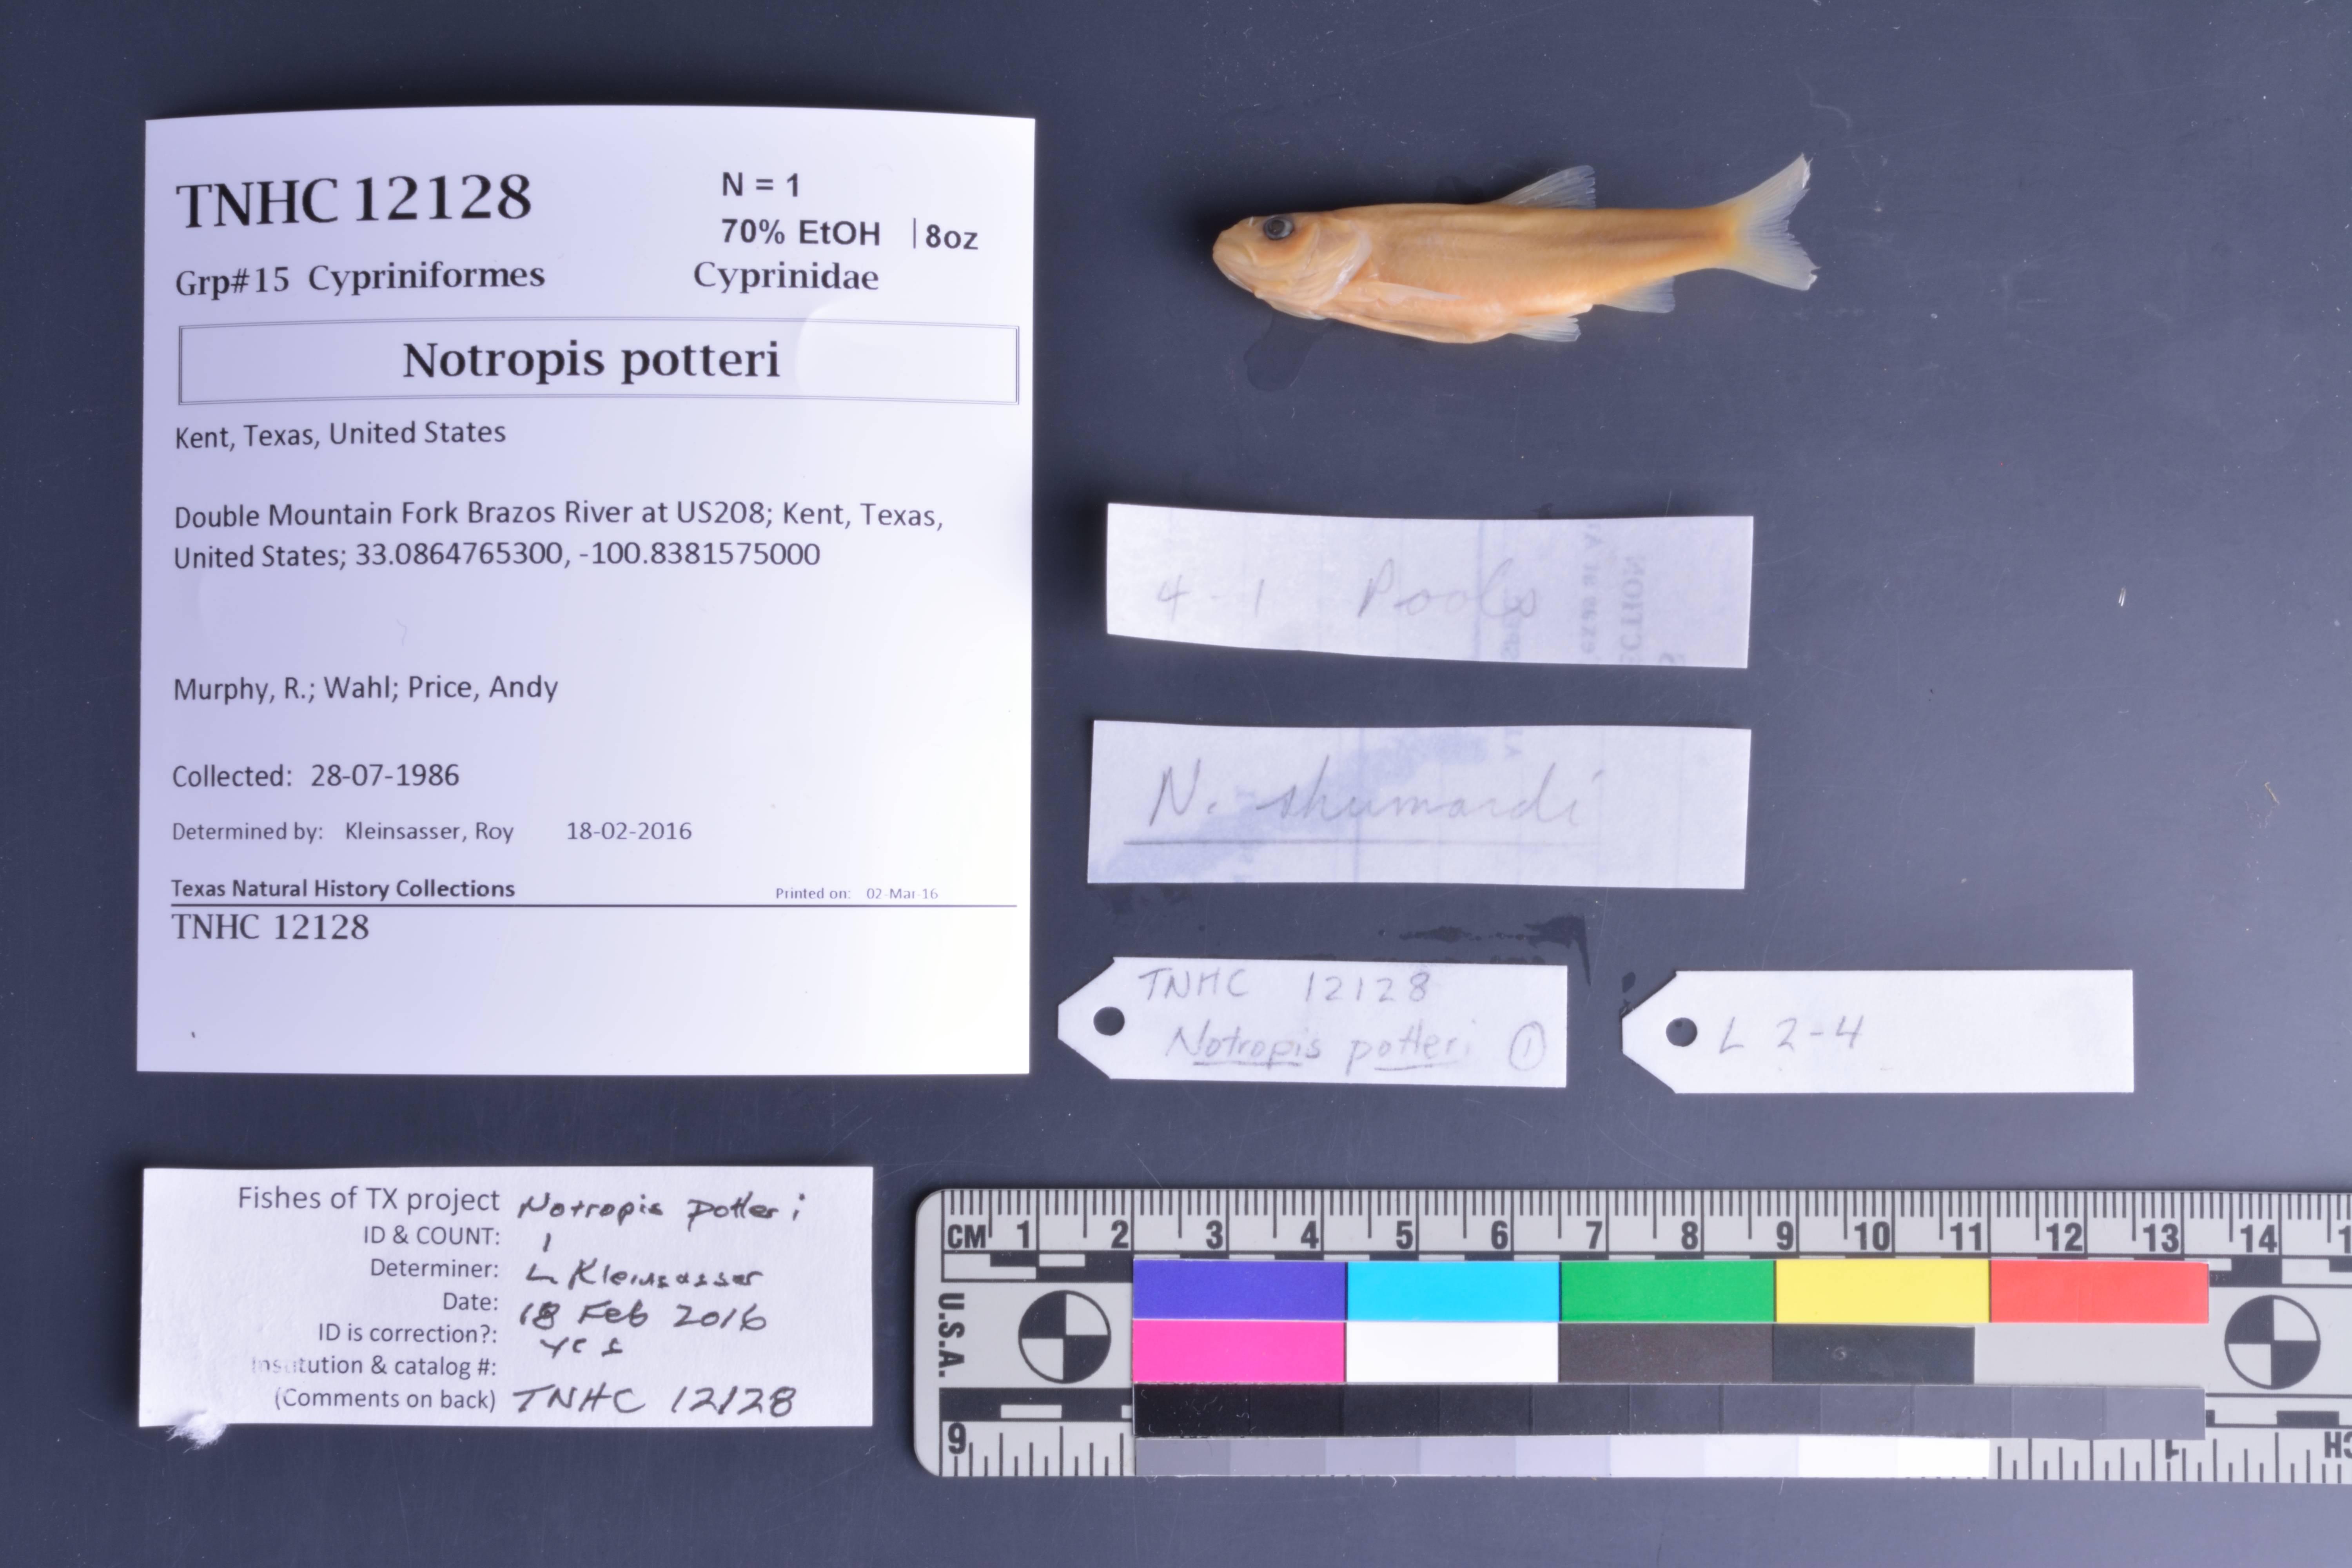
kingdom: Animalia
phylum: Chordata
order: Cypriniformes
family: Cyprinidae
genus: Notropis
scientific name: Notropis potteri
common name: Chub shiner
